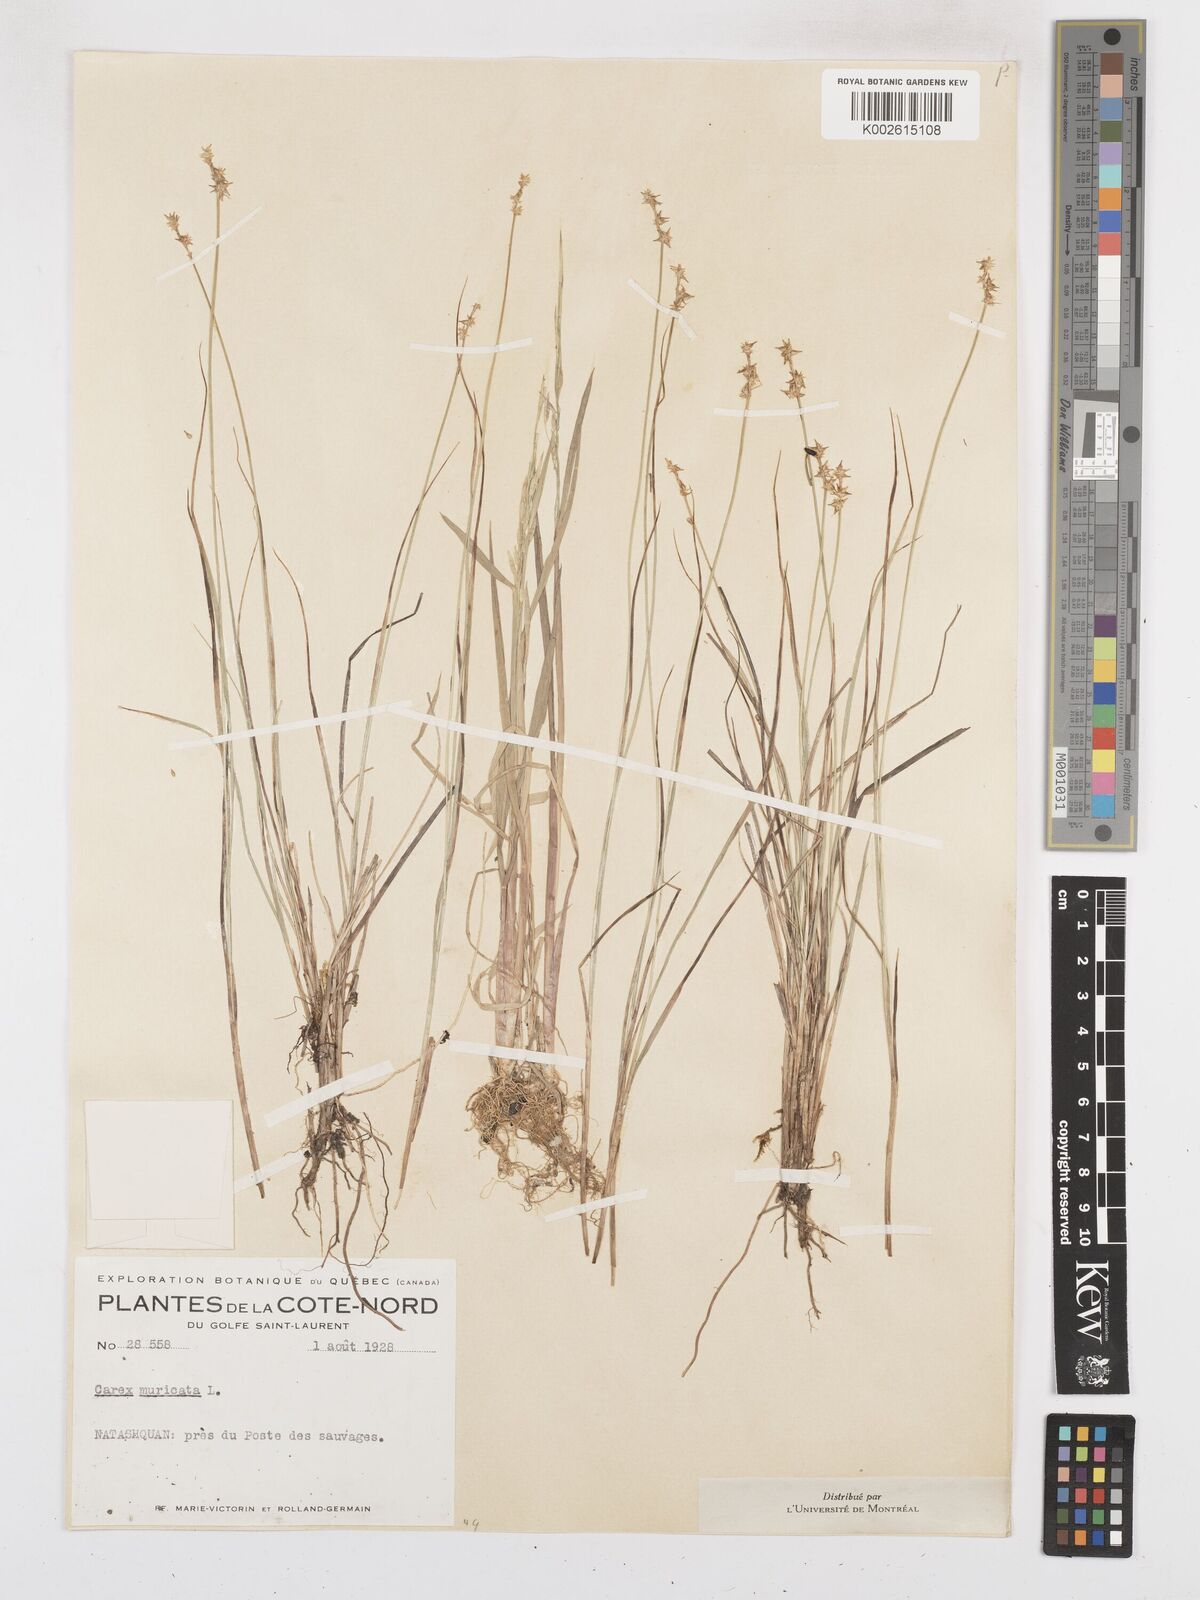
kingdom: Plantae
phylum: Tracheophyta
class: Liliopsida
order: Poales
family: Cyperaceae
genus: Carex
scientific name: Carex echinata
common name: Star sedge
